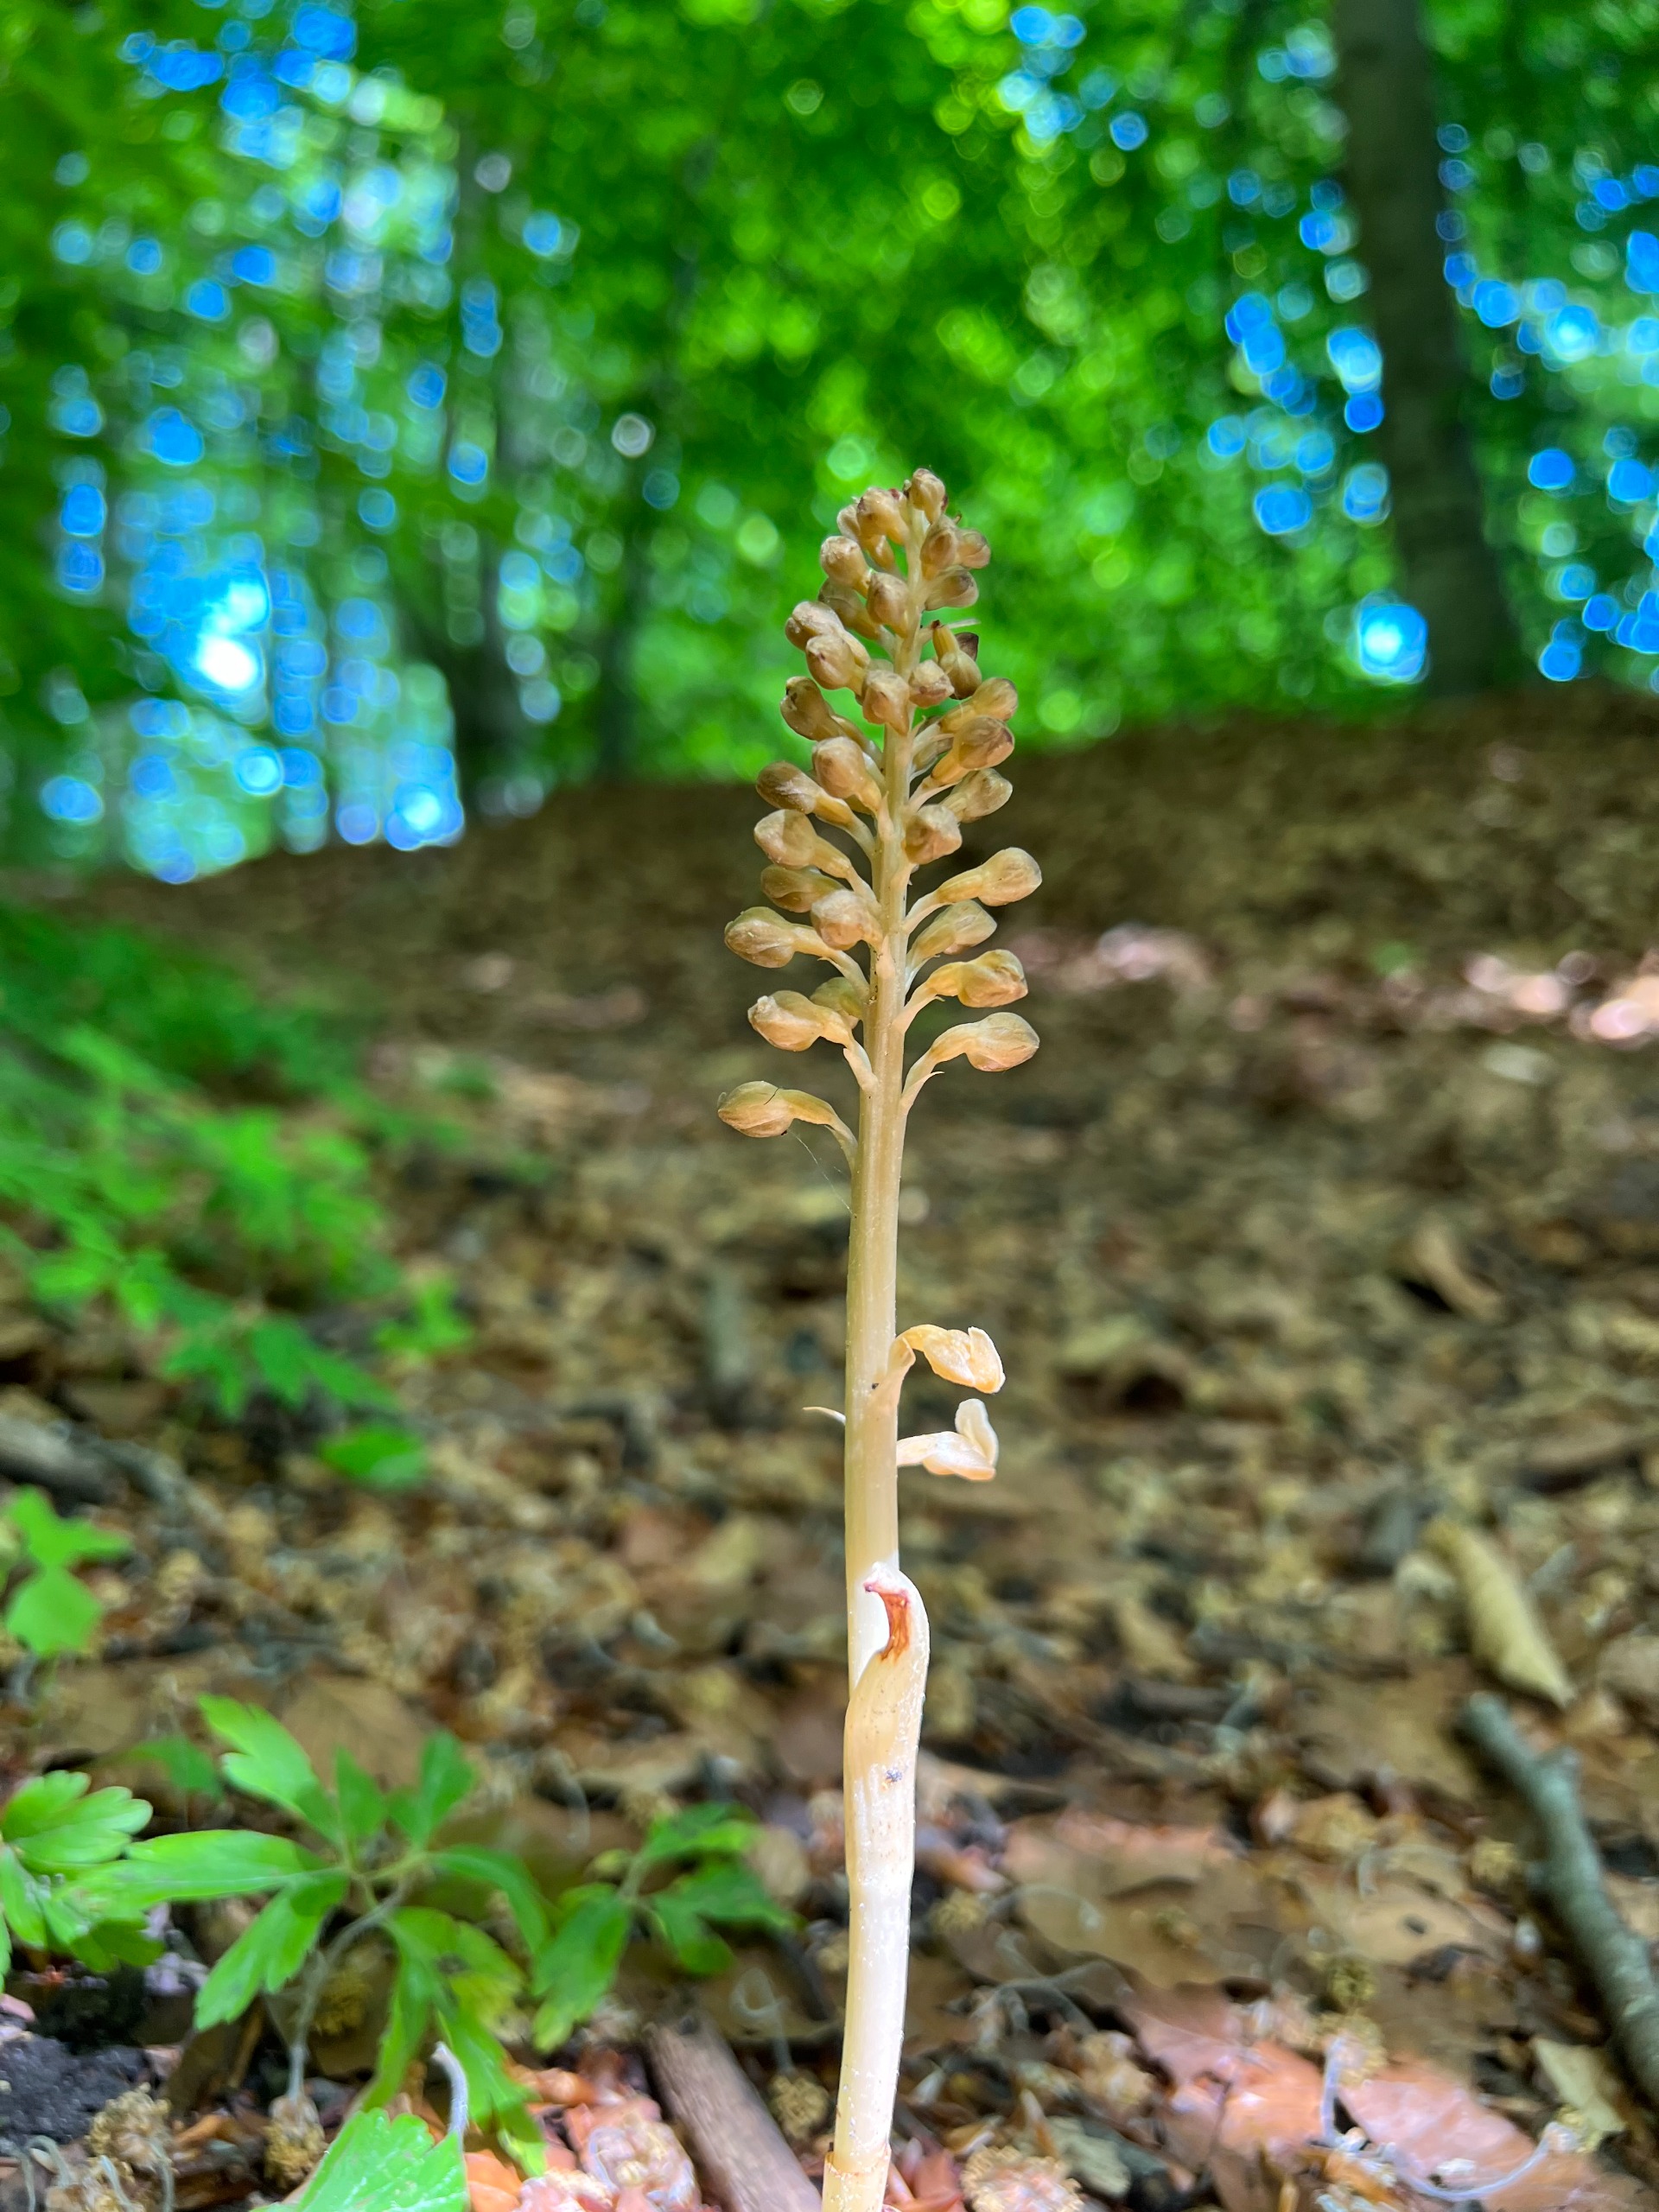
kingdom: Plantae
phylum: Tracheophyta
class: Liliopsida
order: Asparagales
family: Orchidaceae
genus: Neottia
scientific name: Neottia nidus-avis
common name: Rederod
